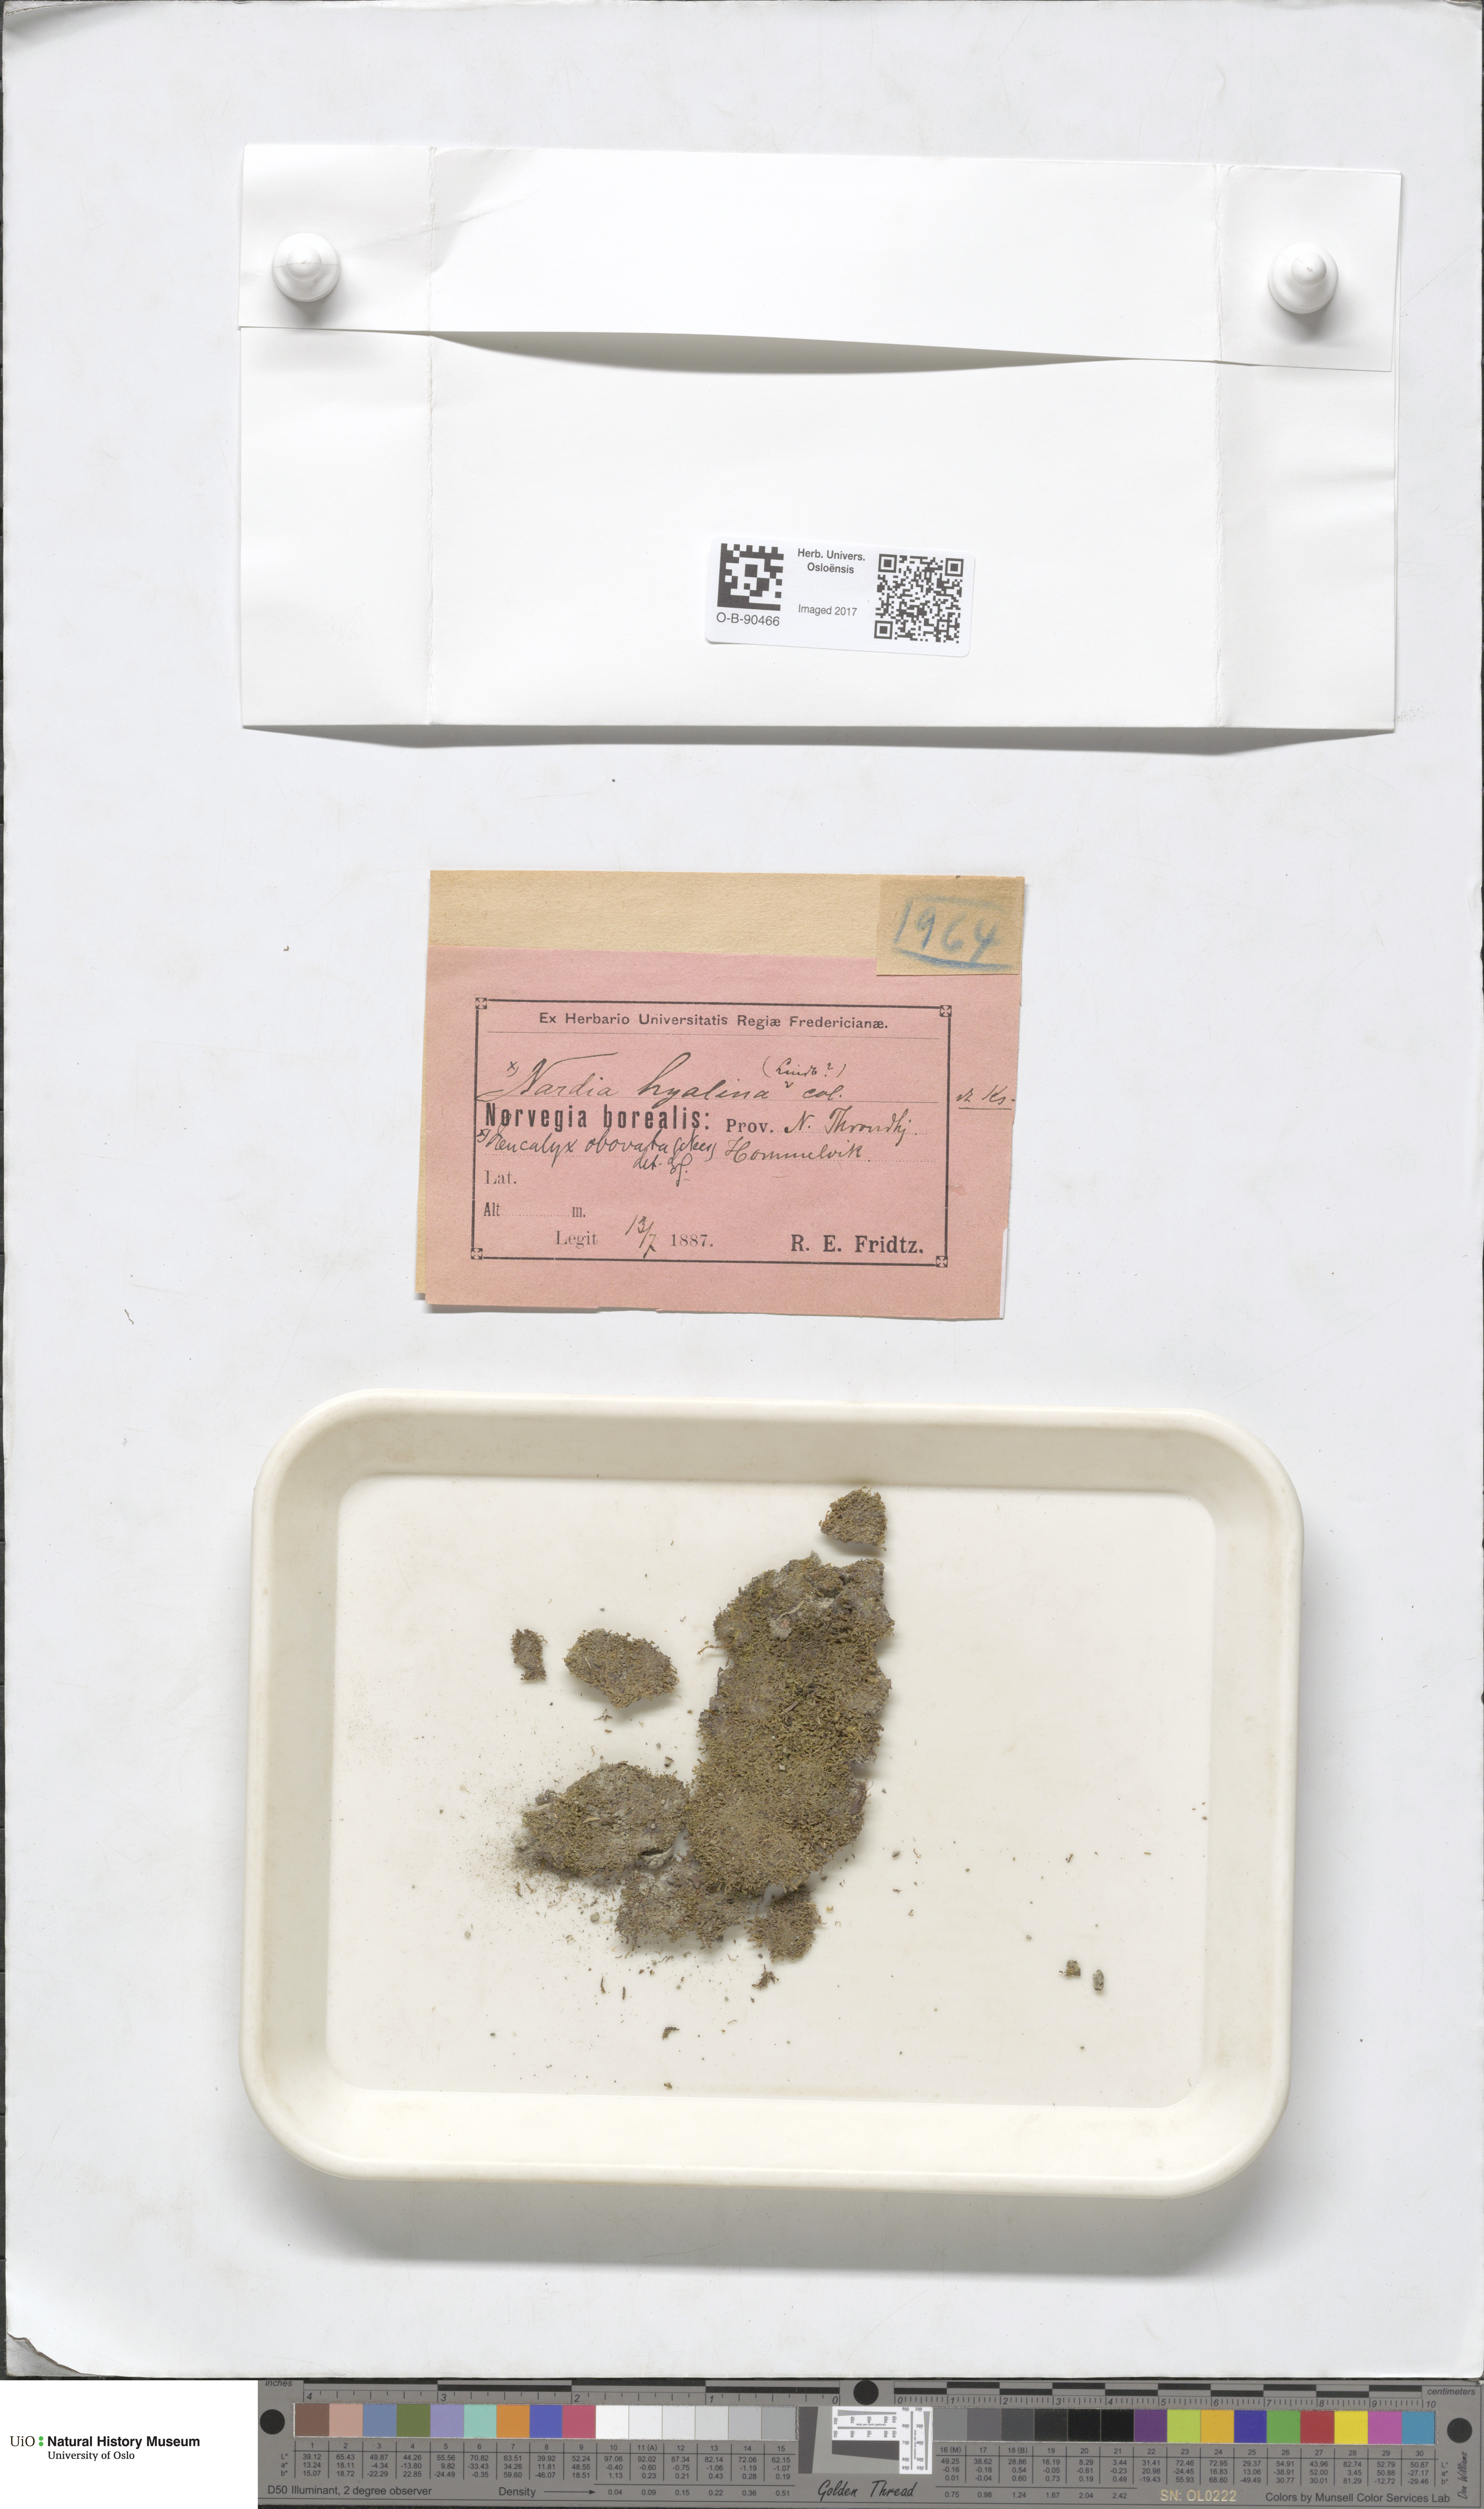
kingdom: Plantae
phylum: Marchantiophyta
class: Jungermanniopsida
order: Jungermanniales
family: Solenostomataceae
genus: Solenostoma
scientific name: Solenostoma obovatum
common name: Egg flapwort
